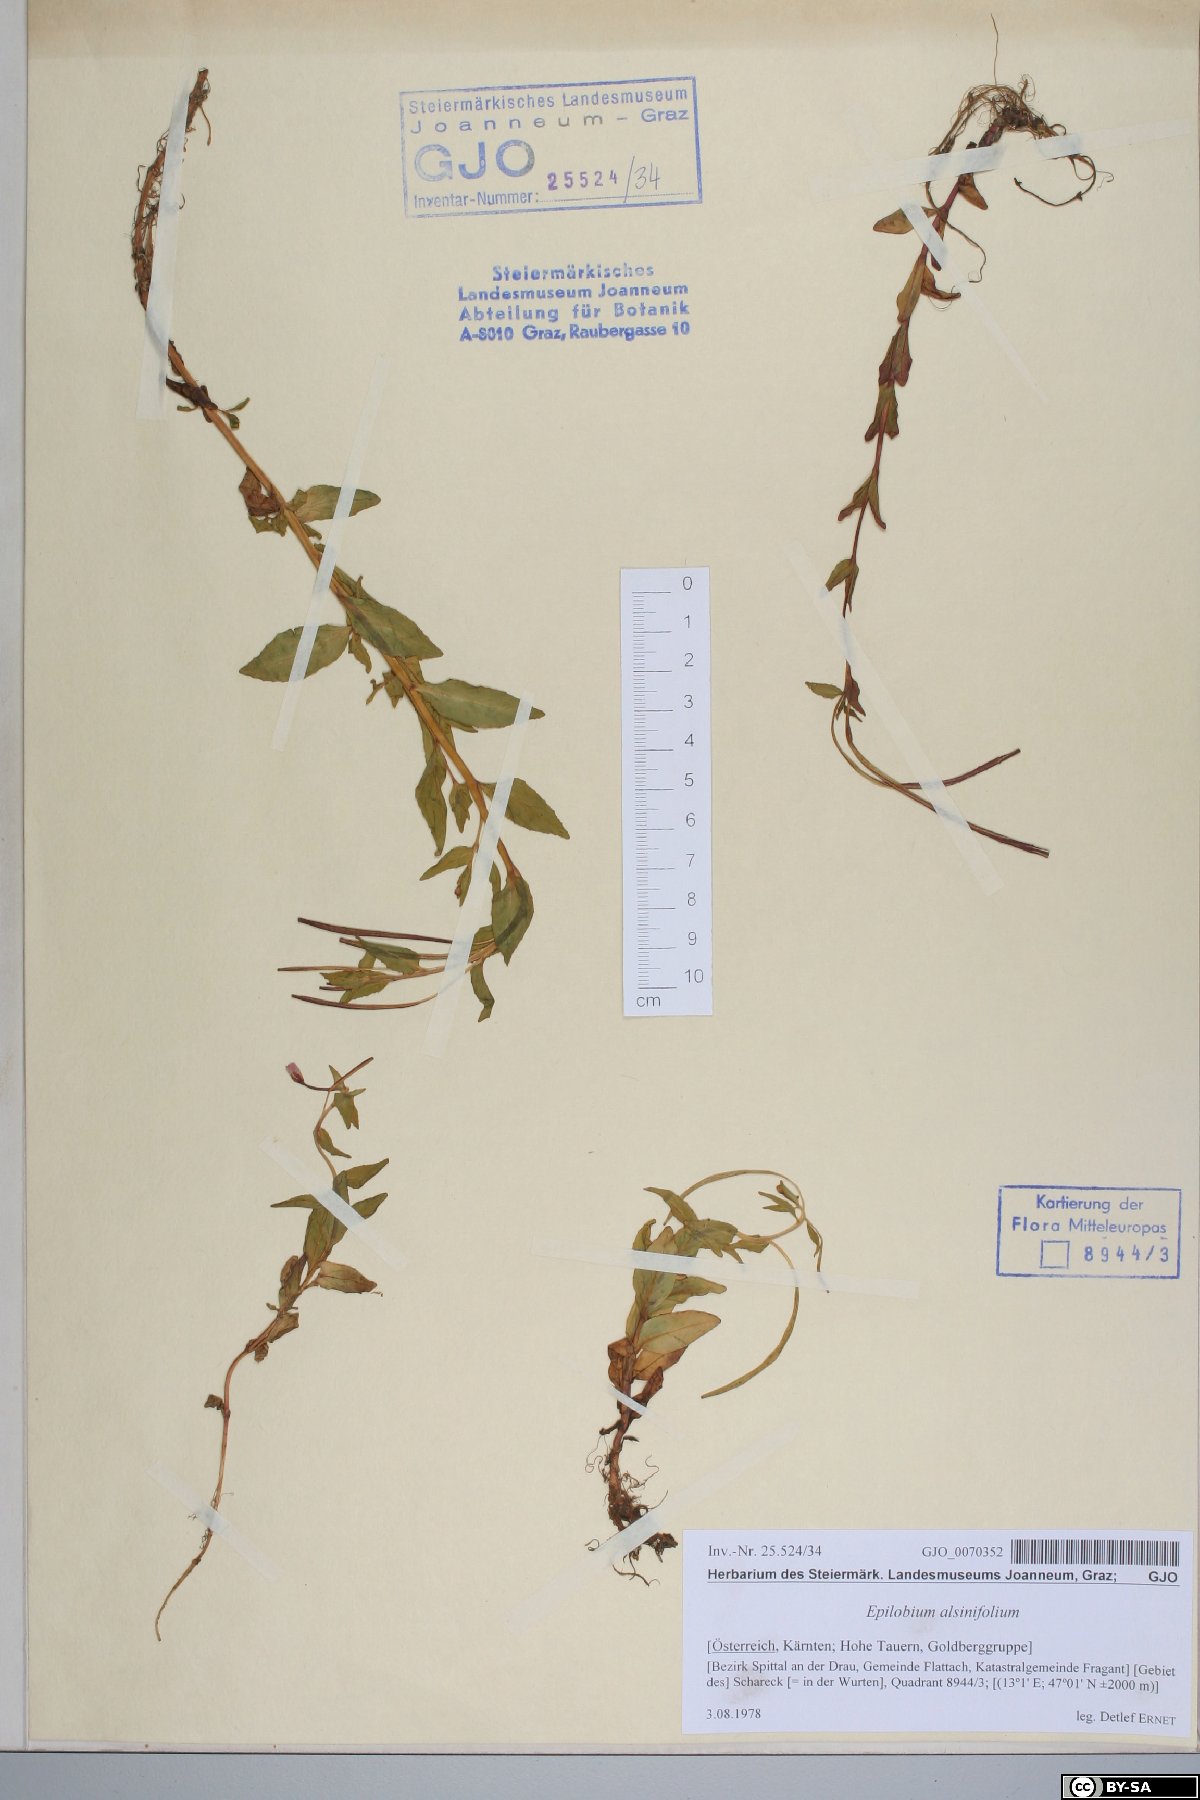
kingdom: Plantae
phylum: Tracheophyta
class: Magnoliopsida
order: Myrtales
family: Onagraceae
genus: Epilobium
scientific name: Epilobium alsinifolium
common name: Chickweed willowherb
